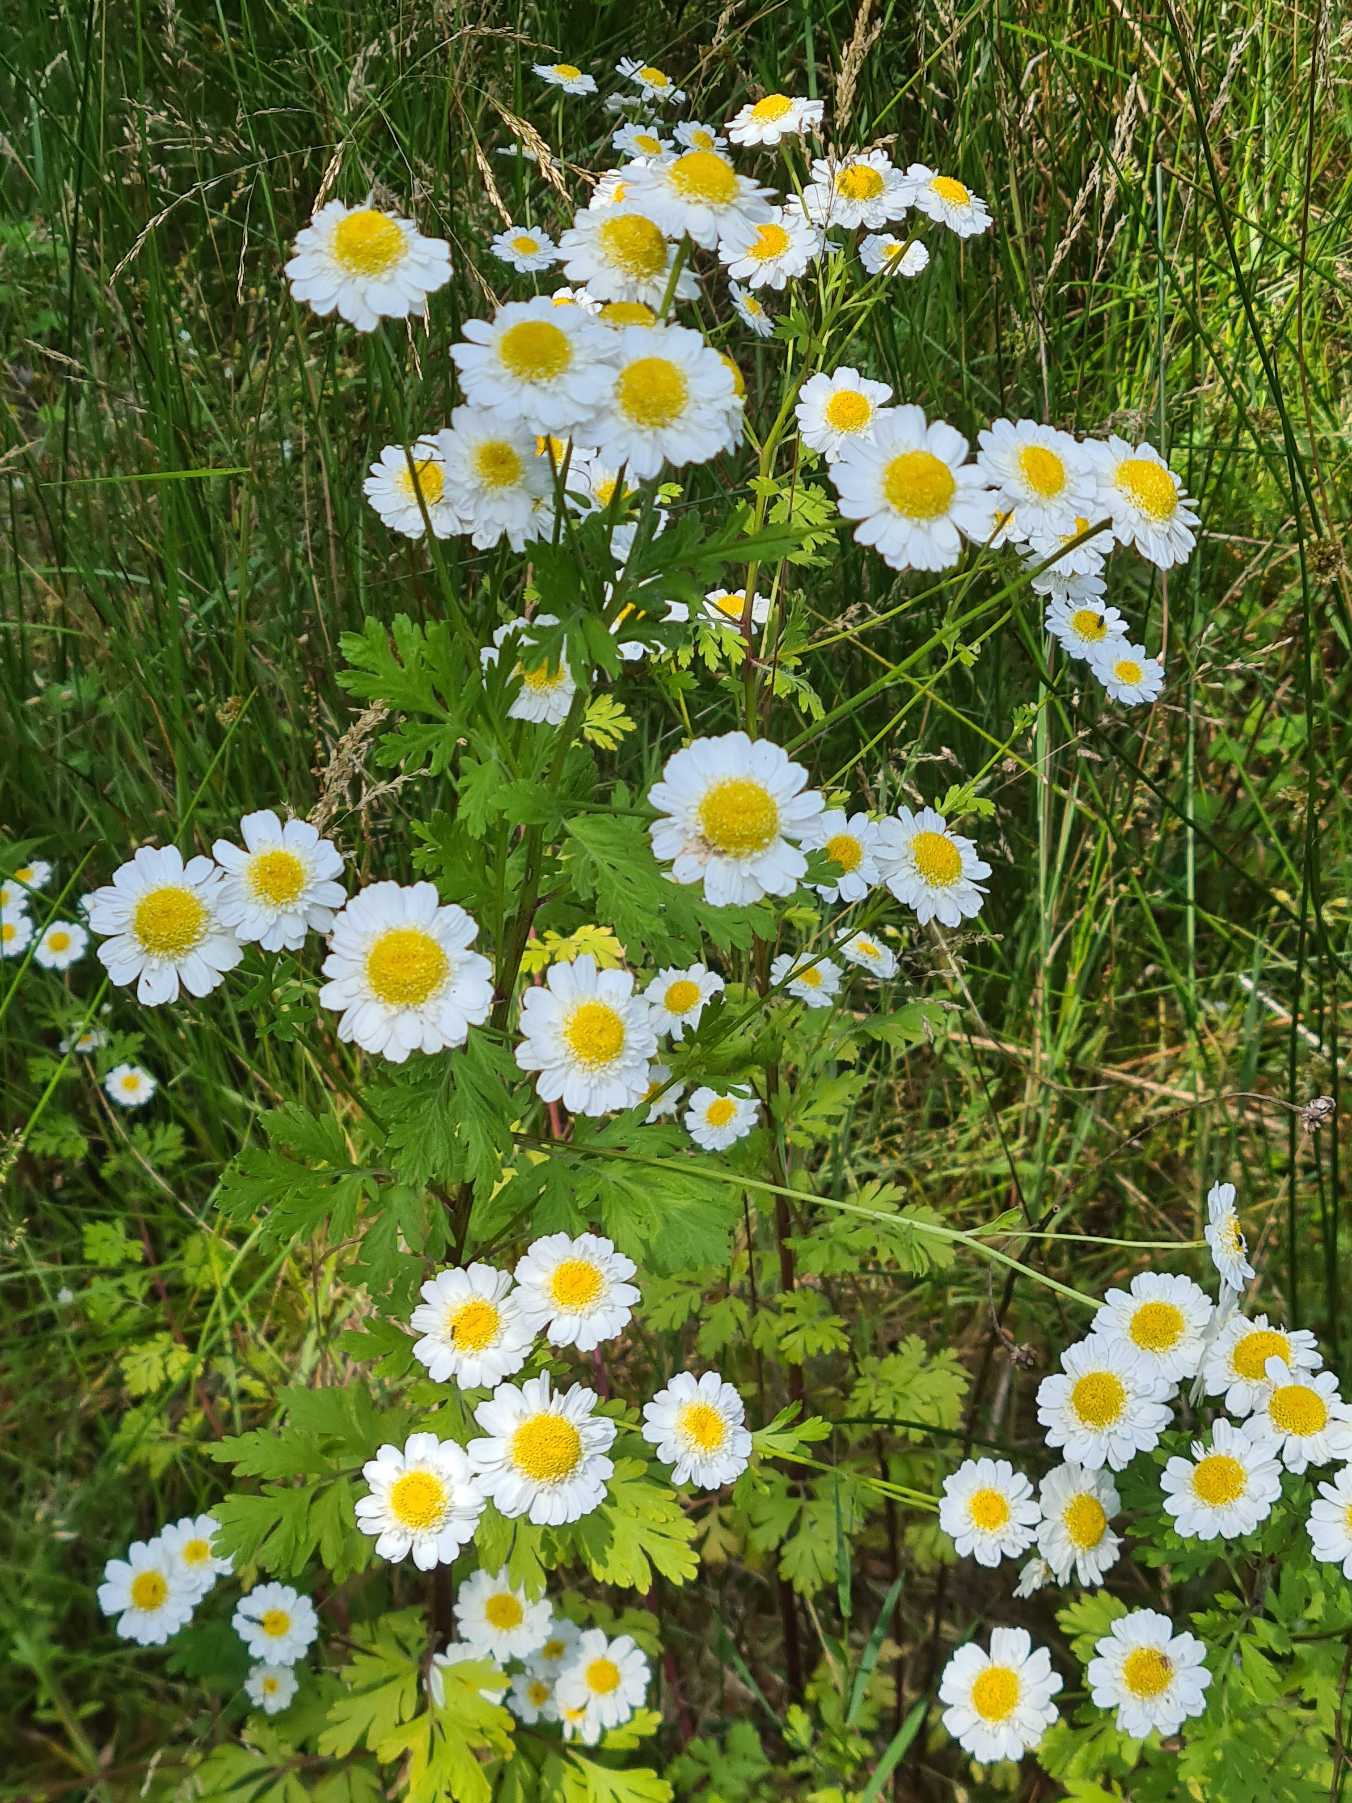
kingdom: Plantae
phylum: Tracheophyta
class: Magnoliopsida
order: Asterales
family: Asteraceae
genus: Tanacetum
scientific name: Tanacetum parthenium
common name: Matrem
